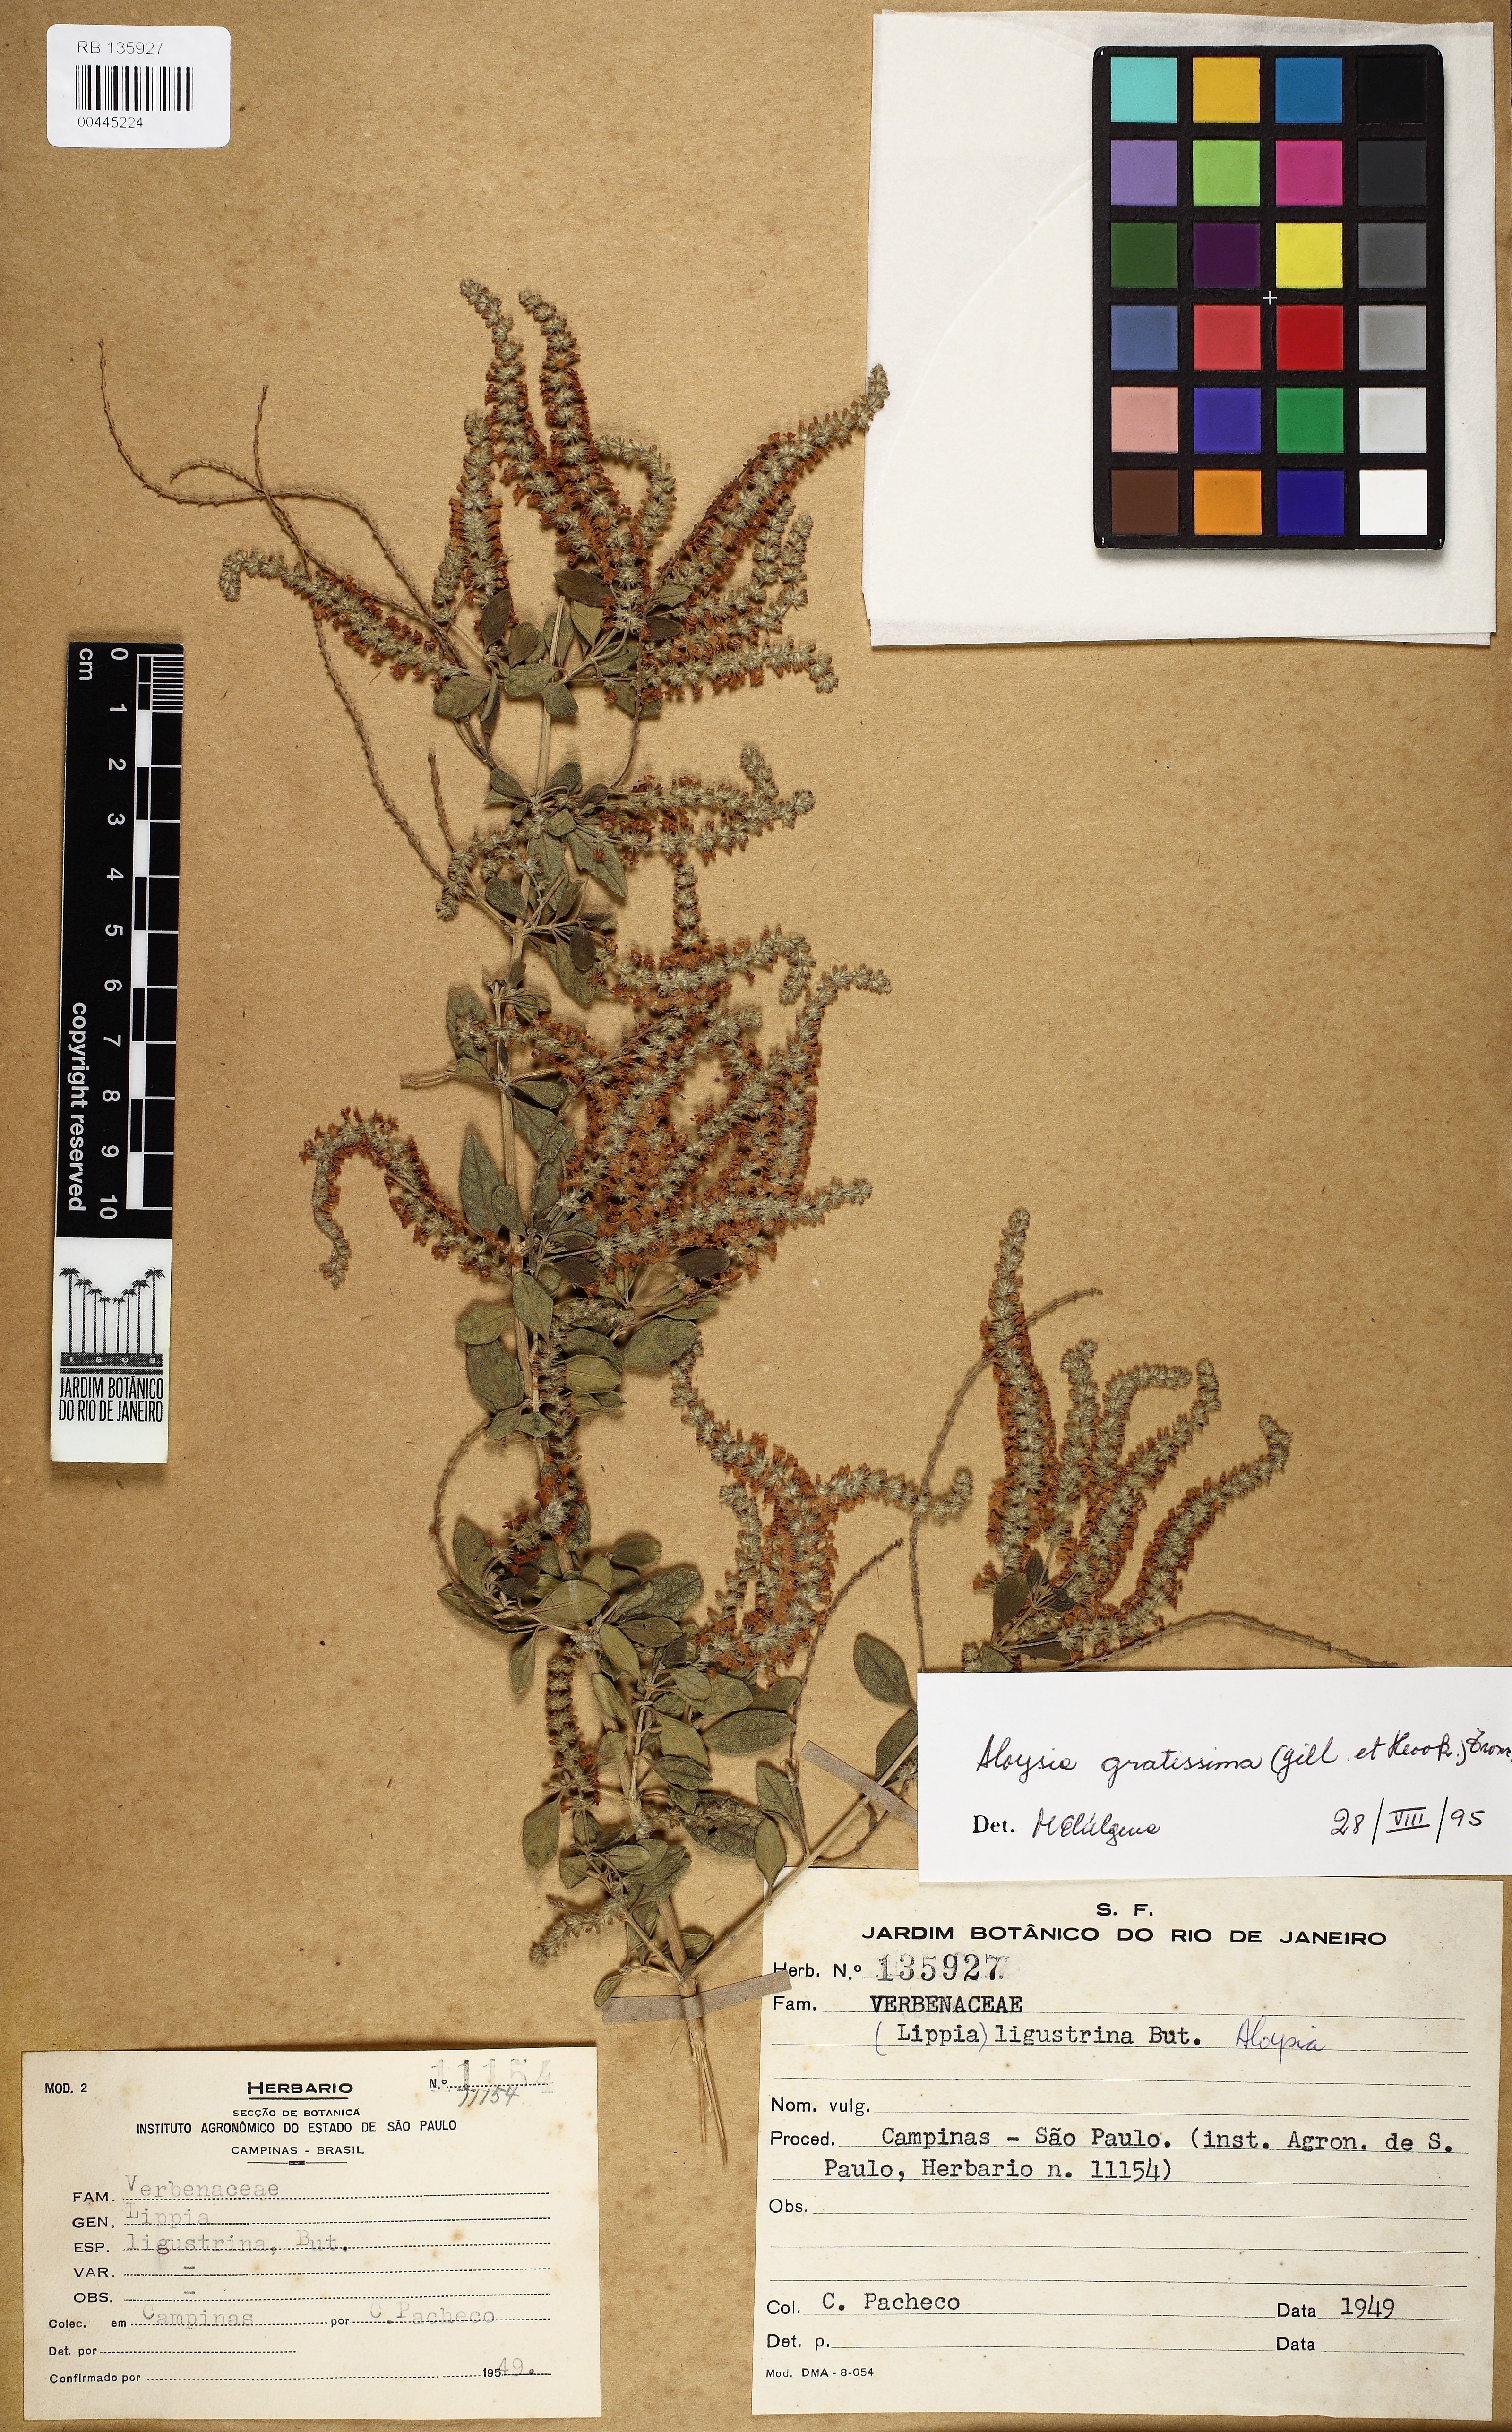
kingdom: Plantae
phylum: Tracheophyta
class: Magnoliopsida
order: Lamiales
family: Verbenaceae
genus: Aloysia
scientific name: Aloysia gratissima
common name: Common bee-brush
